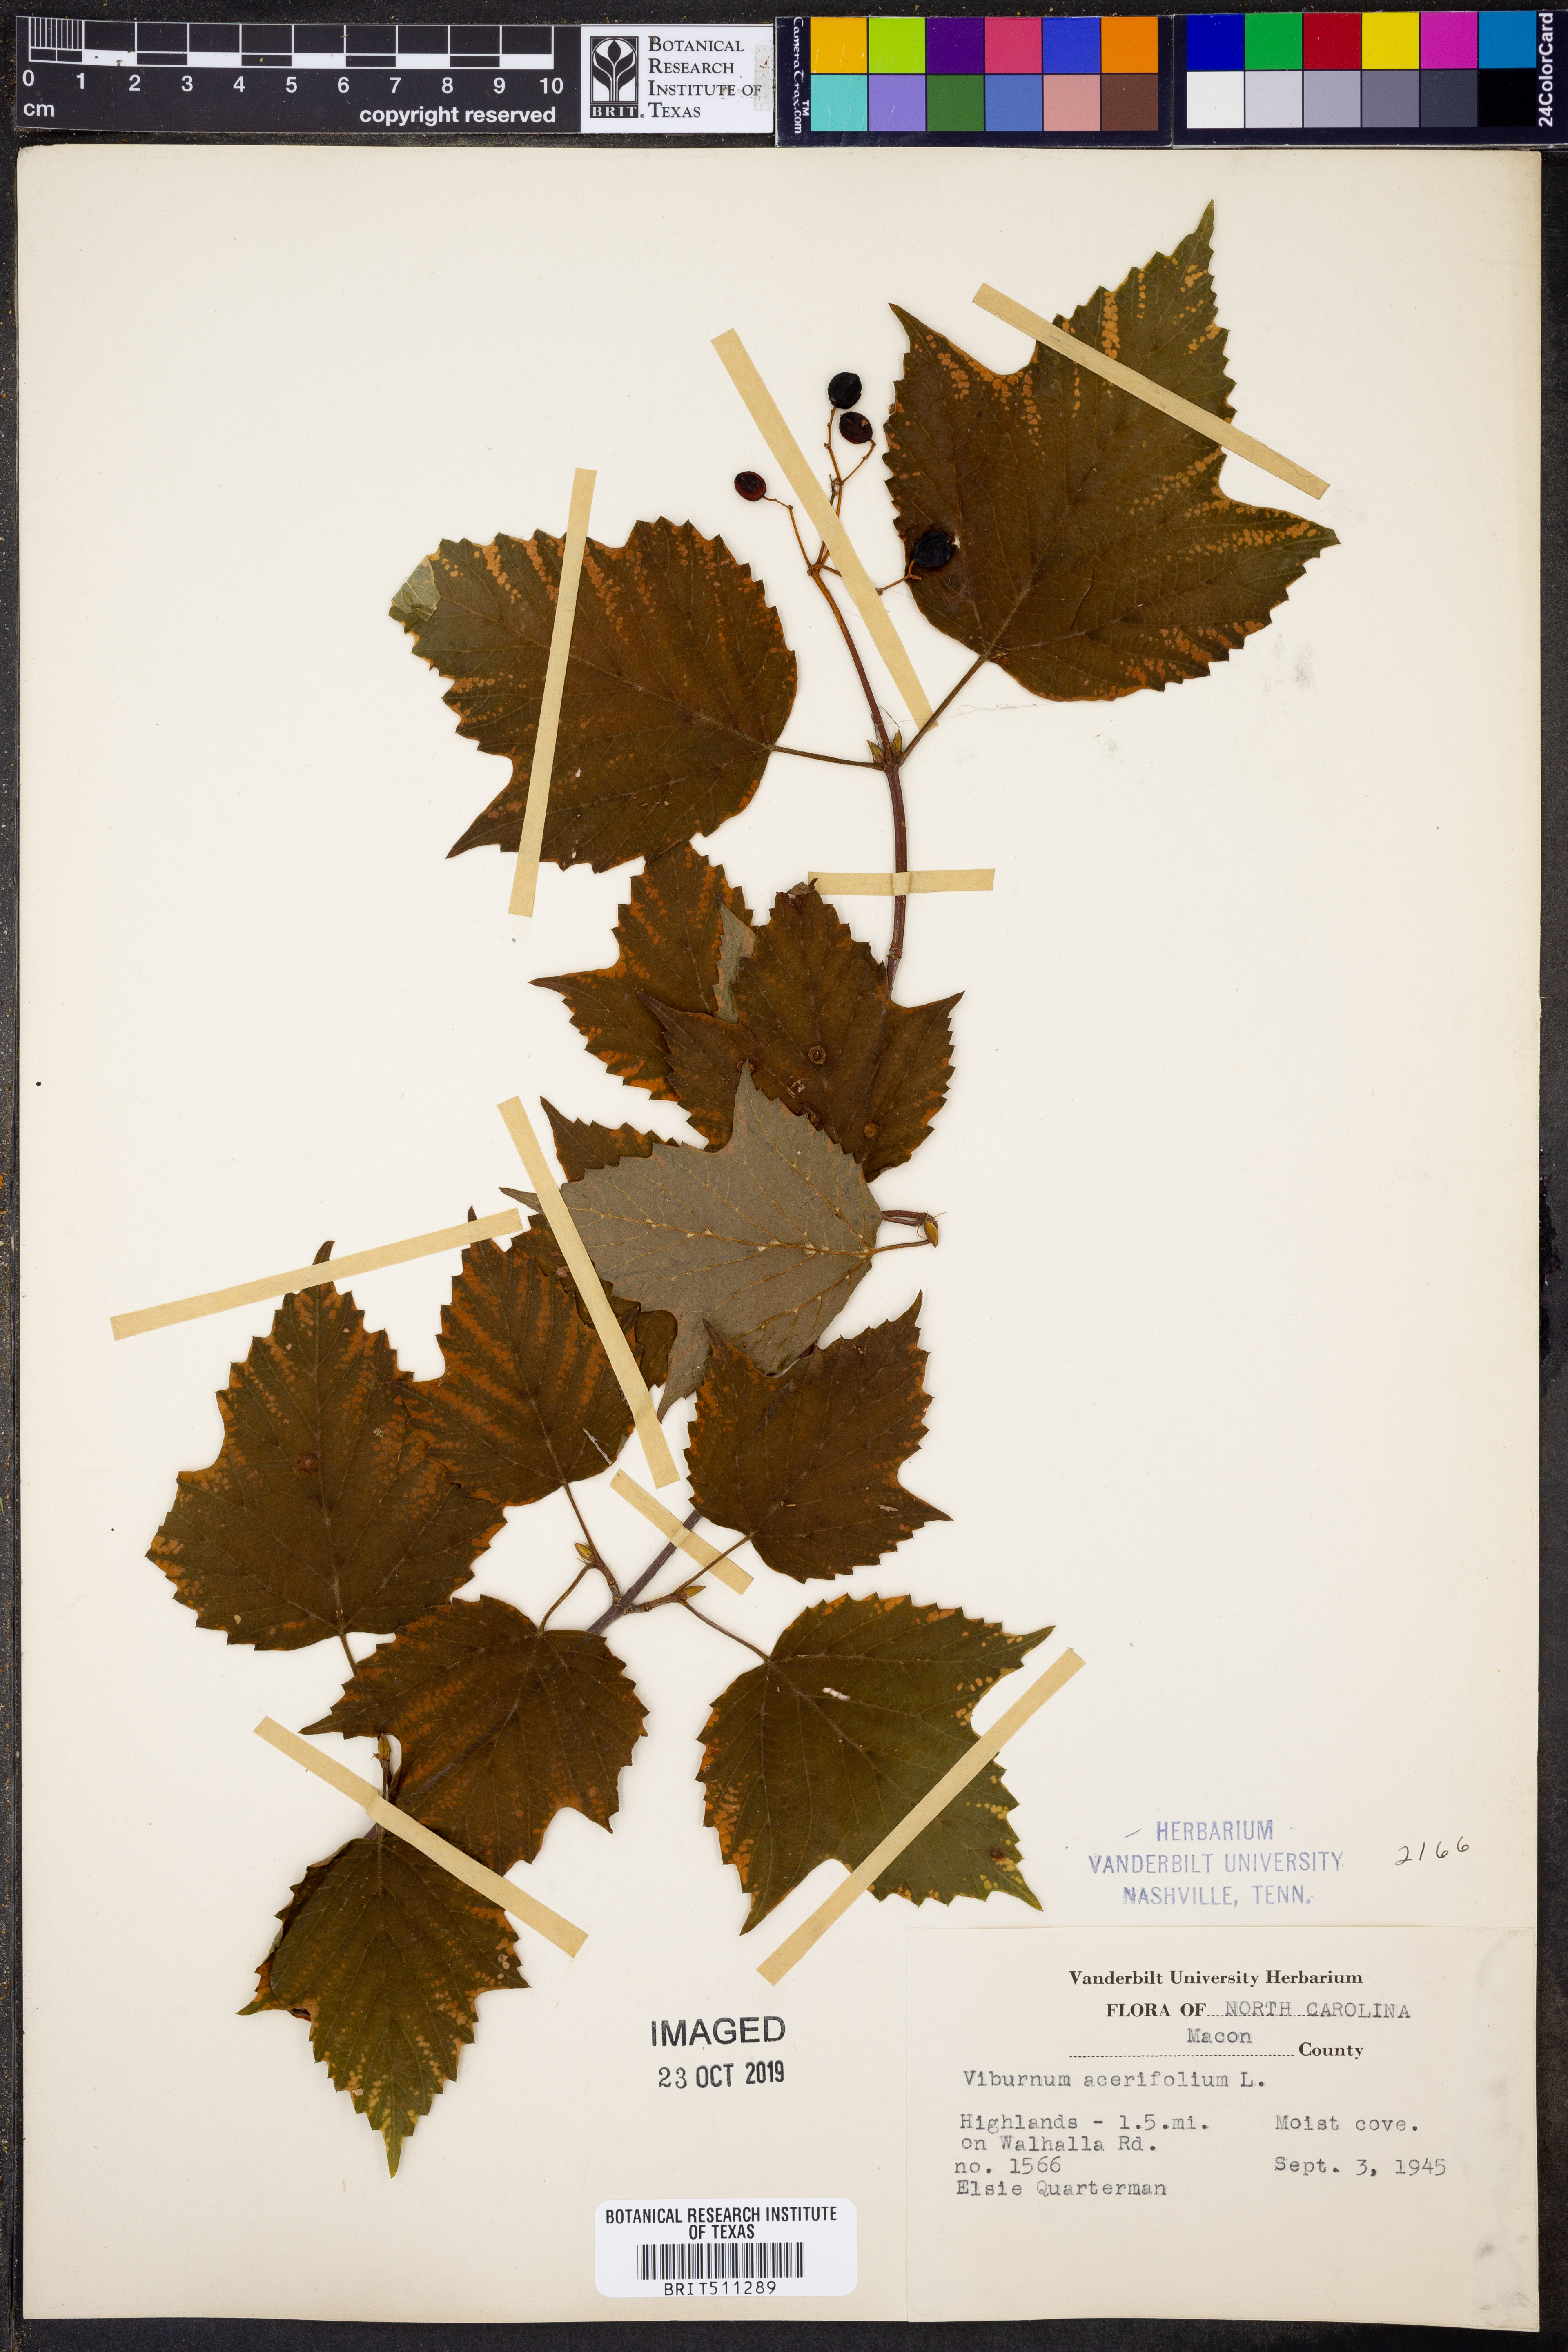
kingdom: Plantae
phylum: Tracheophyta
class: Magnoliopsida
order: Dipsacales
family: Viburnaceae
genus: Viburnum
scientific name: Viburnum acerifolium
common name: Dockmackie
